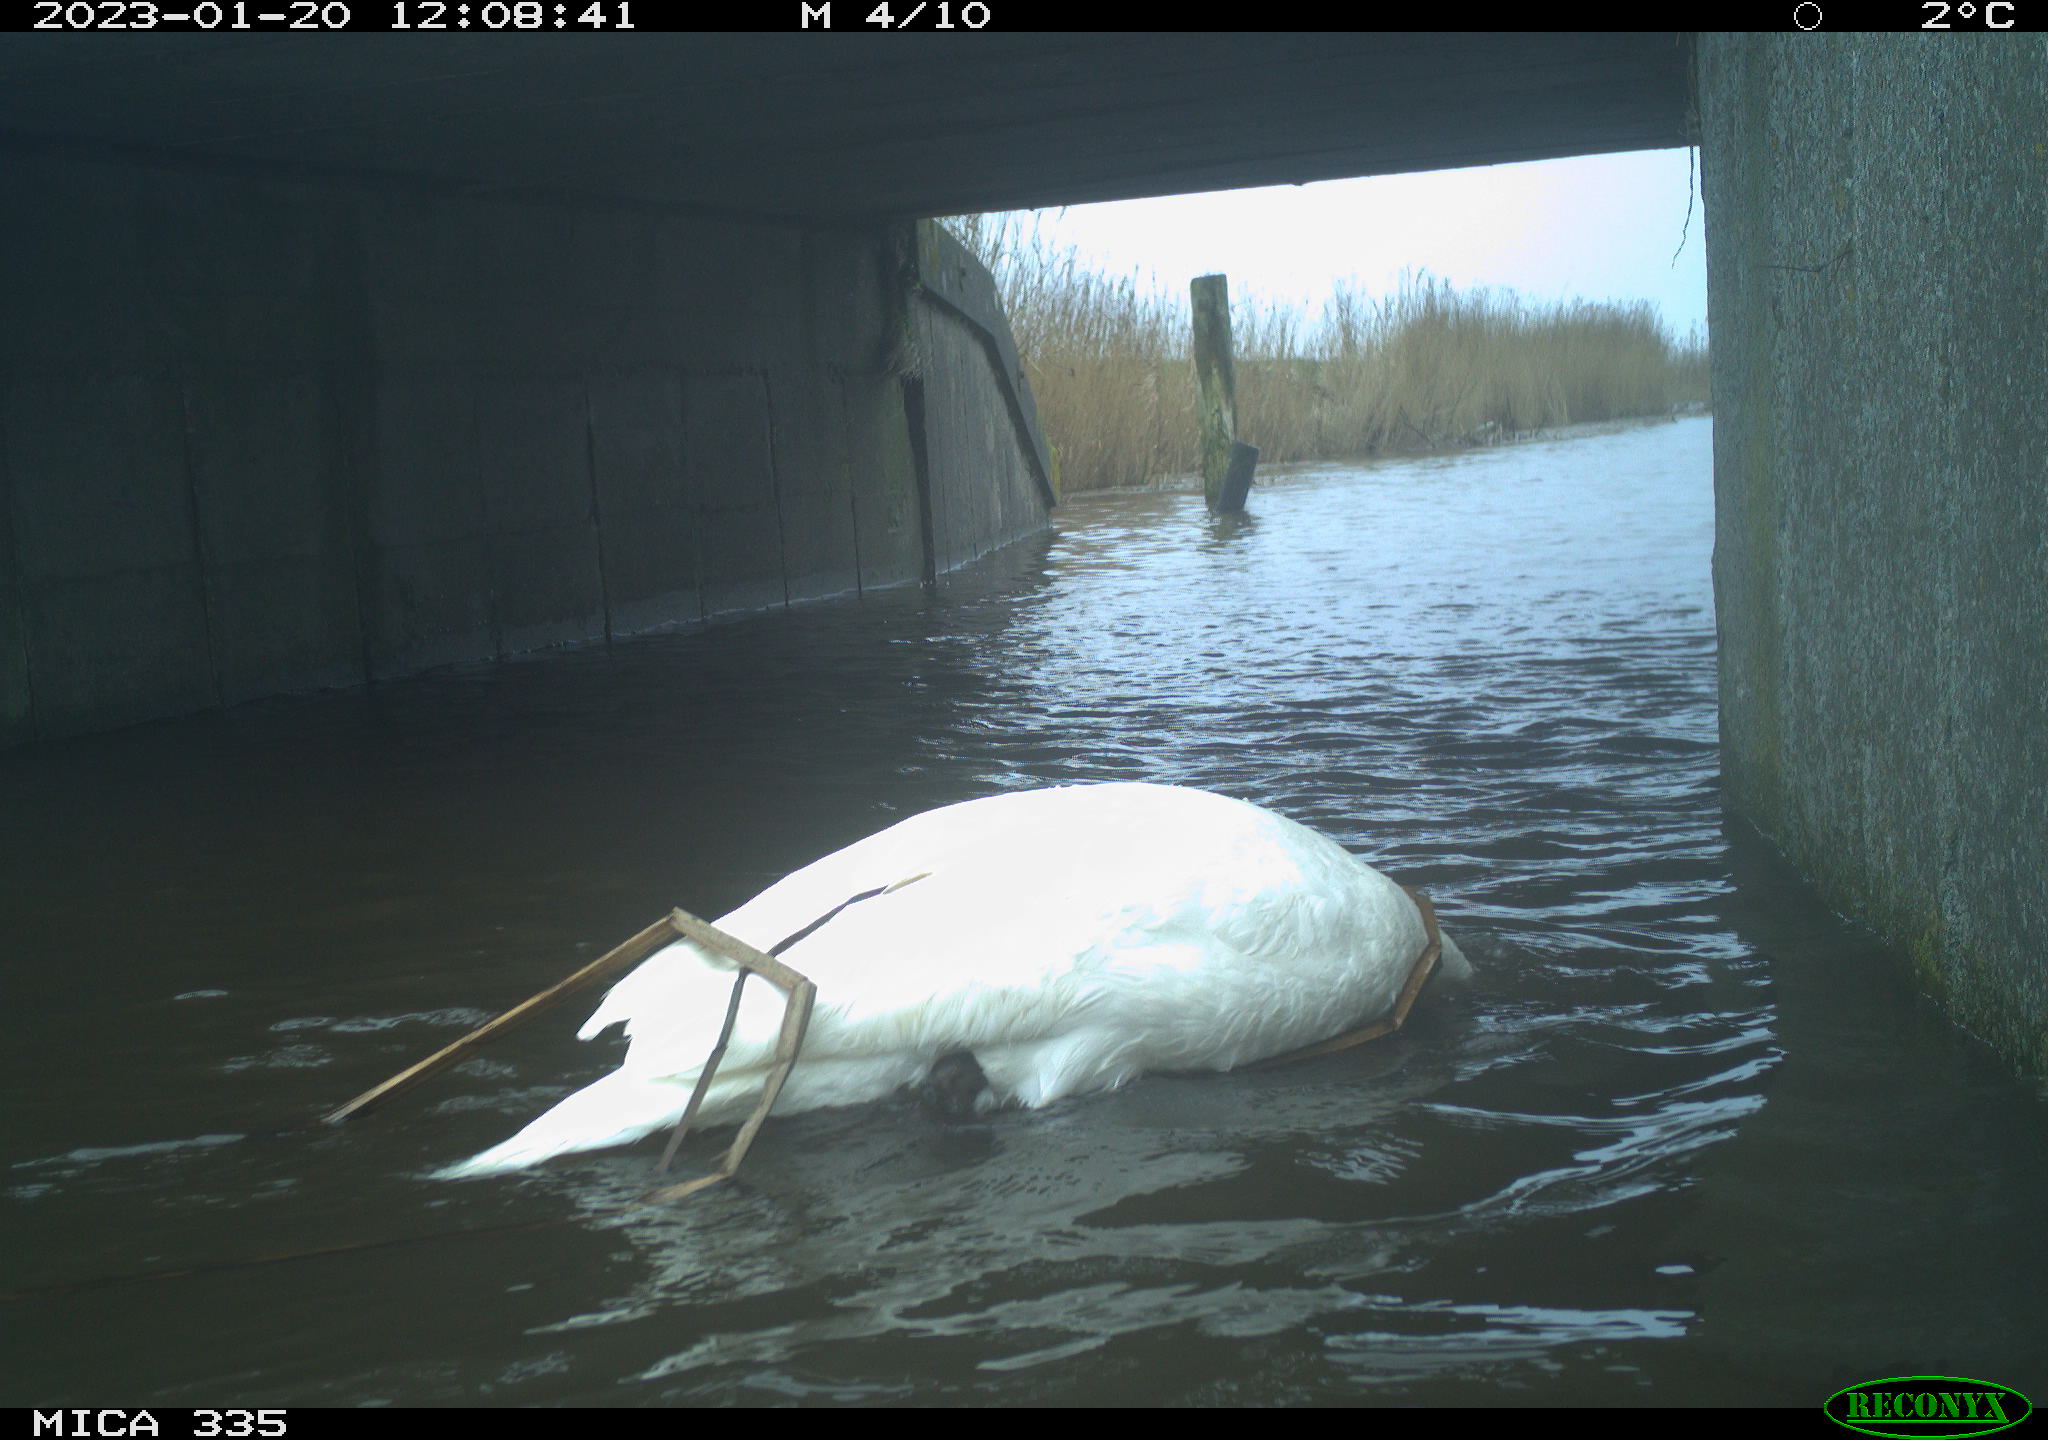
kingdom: Animalia
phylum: Chordata
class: Aves
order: Anseriformes
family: Anatidae
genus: Cygnus
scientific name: Cygnus olor
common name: Mute swan
